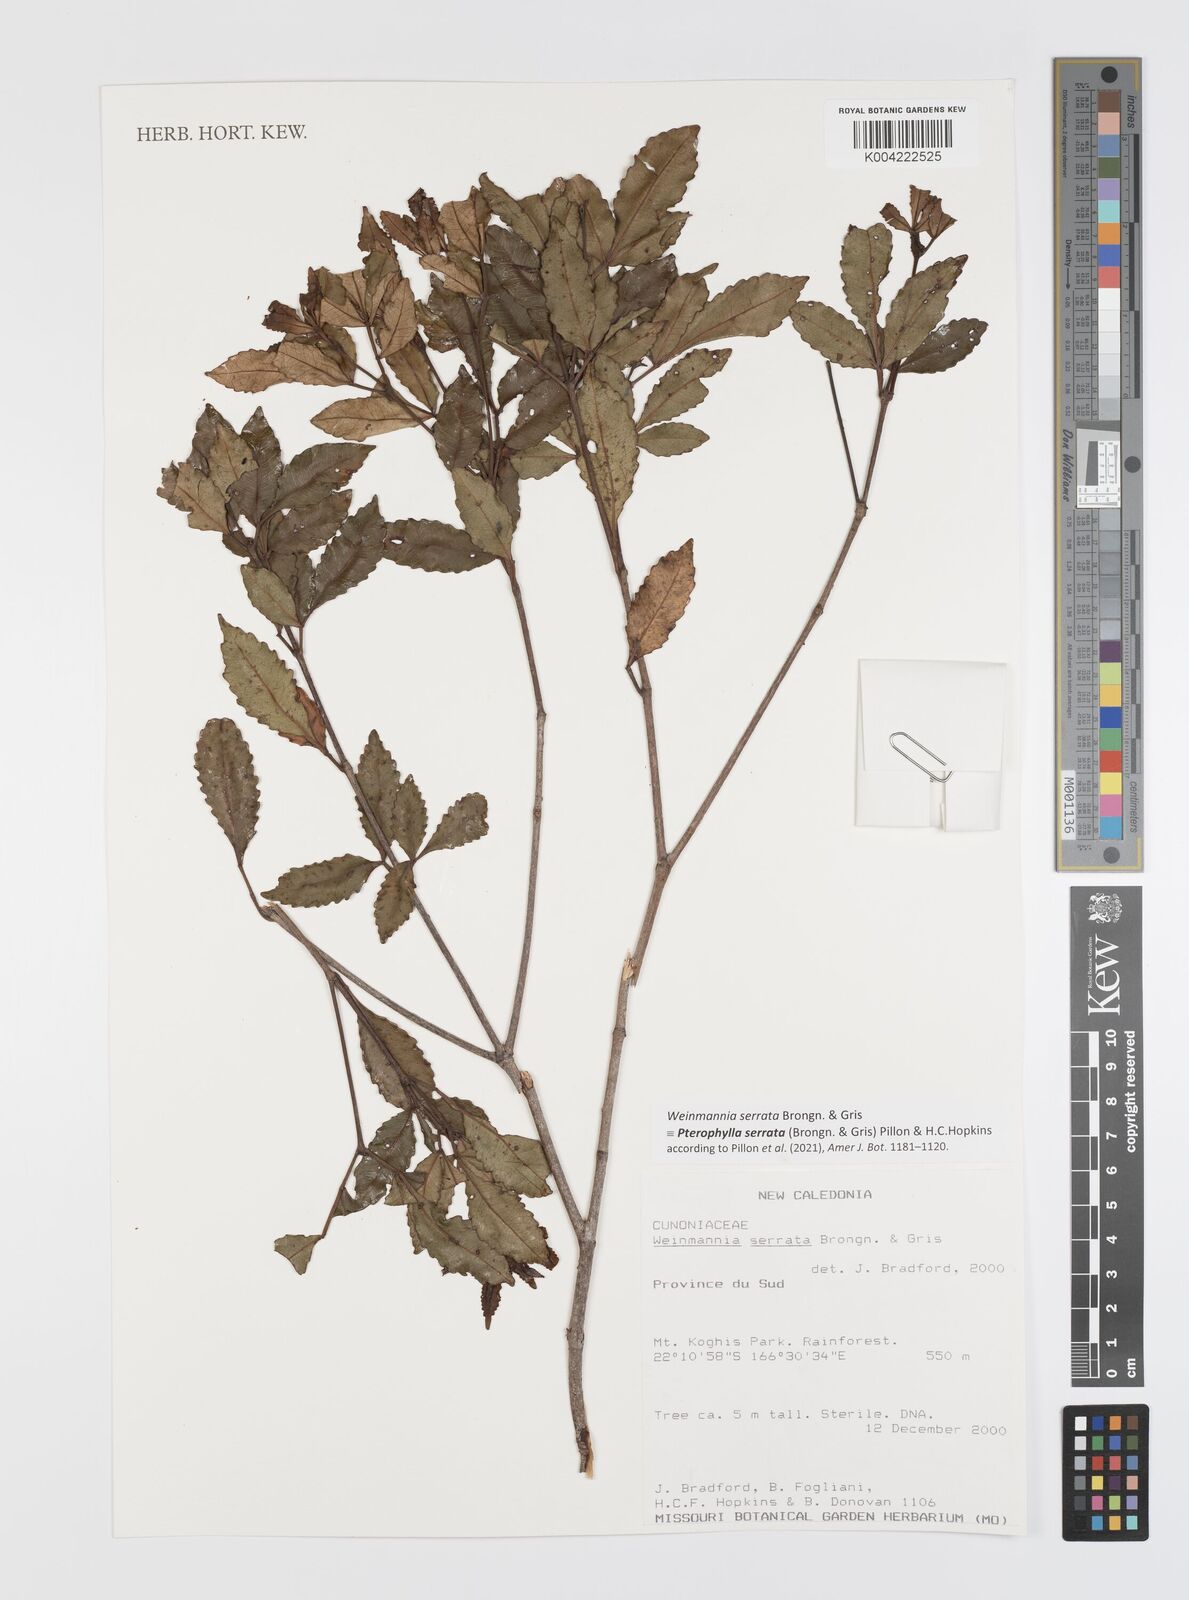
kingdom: Plantae
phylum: Tracheophyta
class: Magnoliopsida
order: Oxalidales
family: Cunoniaceae
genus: Pterophylla
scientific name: Pterophylla serrata
